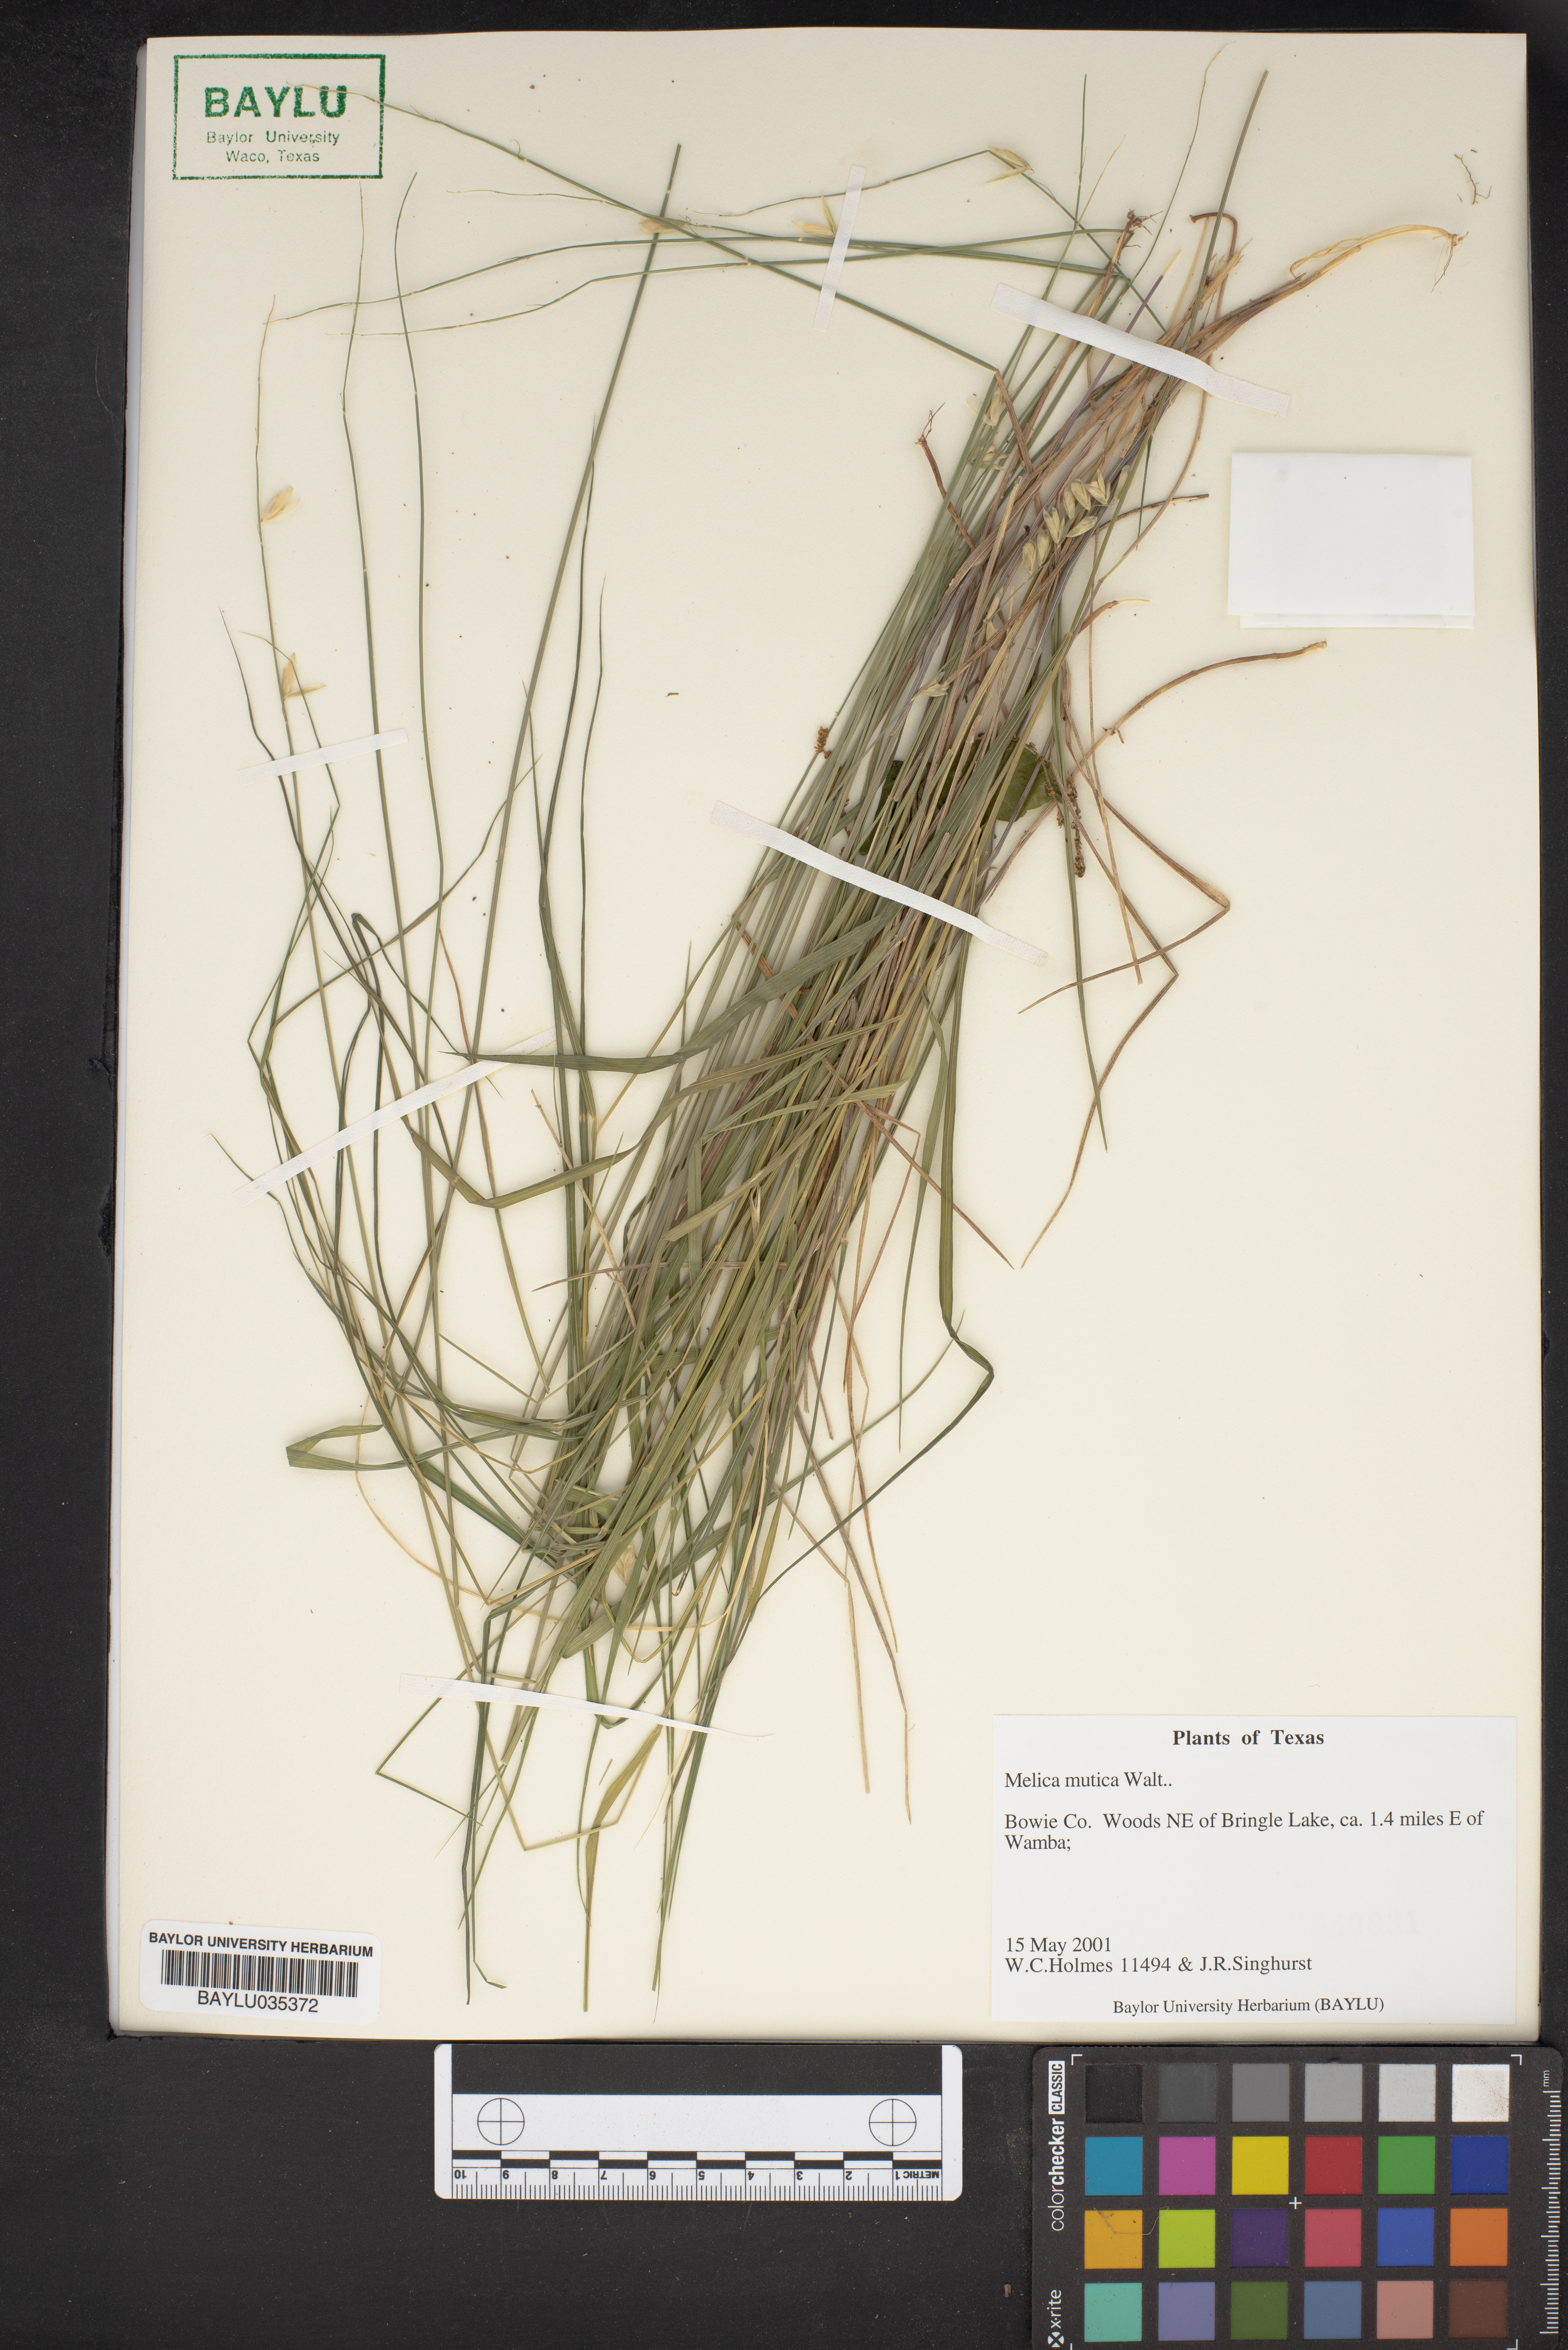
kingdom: Plantae
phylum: Tracheophyta
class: Liliopsida
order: Poales
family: Poaceae
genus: Melica
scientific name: Melica mutica
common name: Two-flower melic
